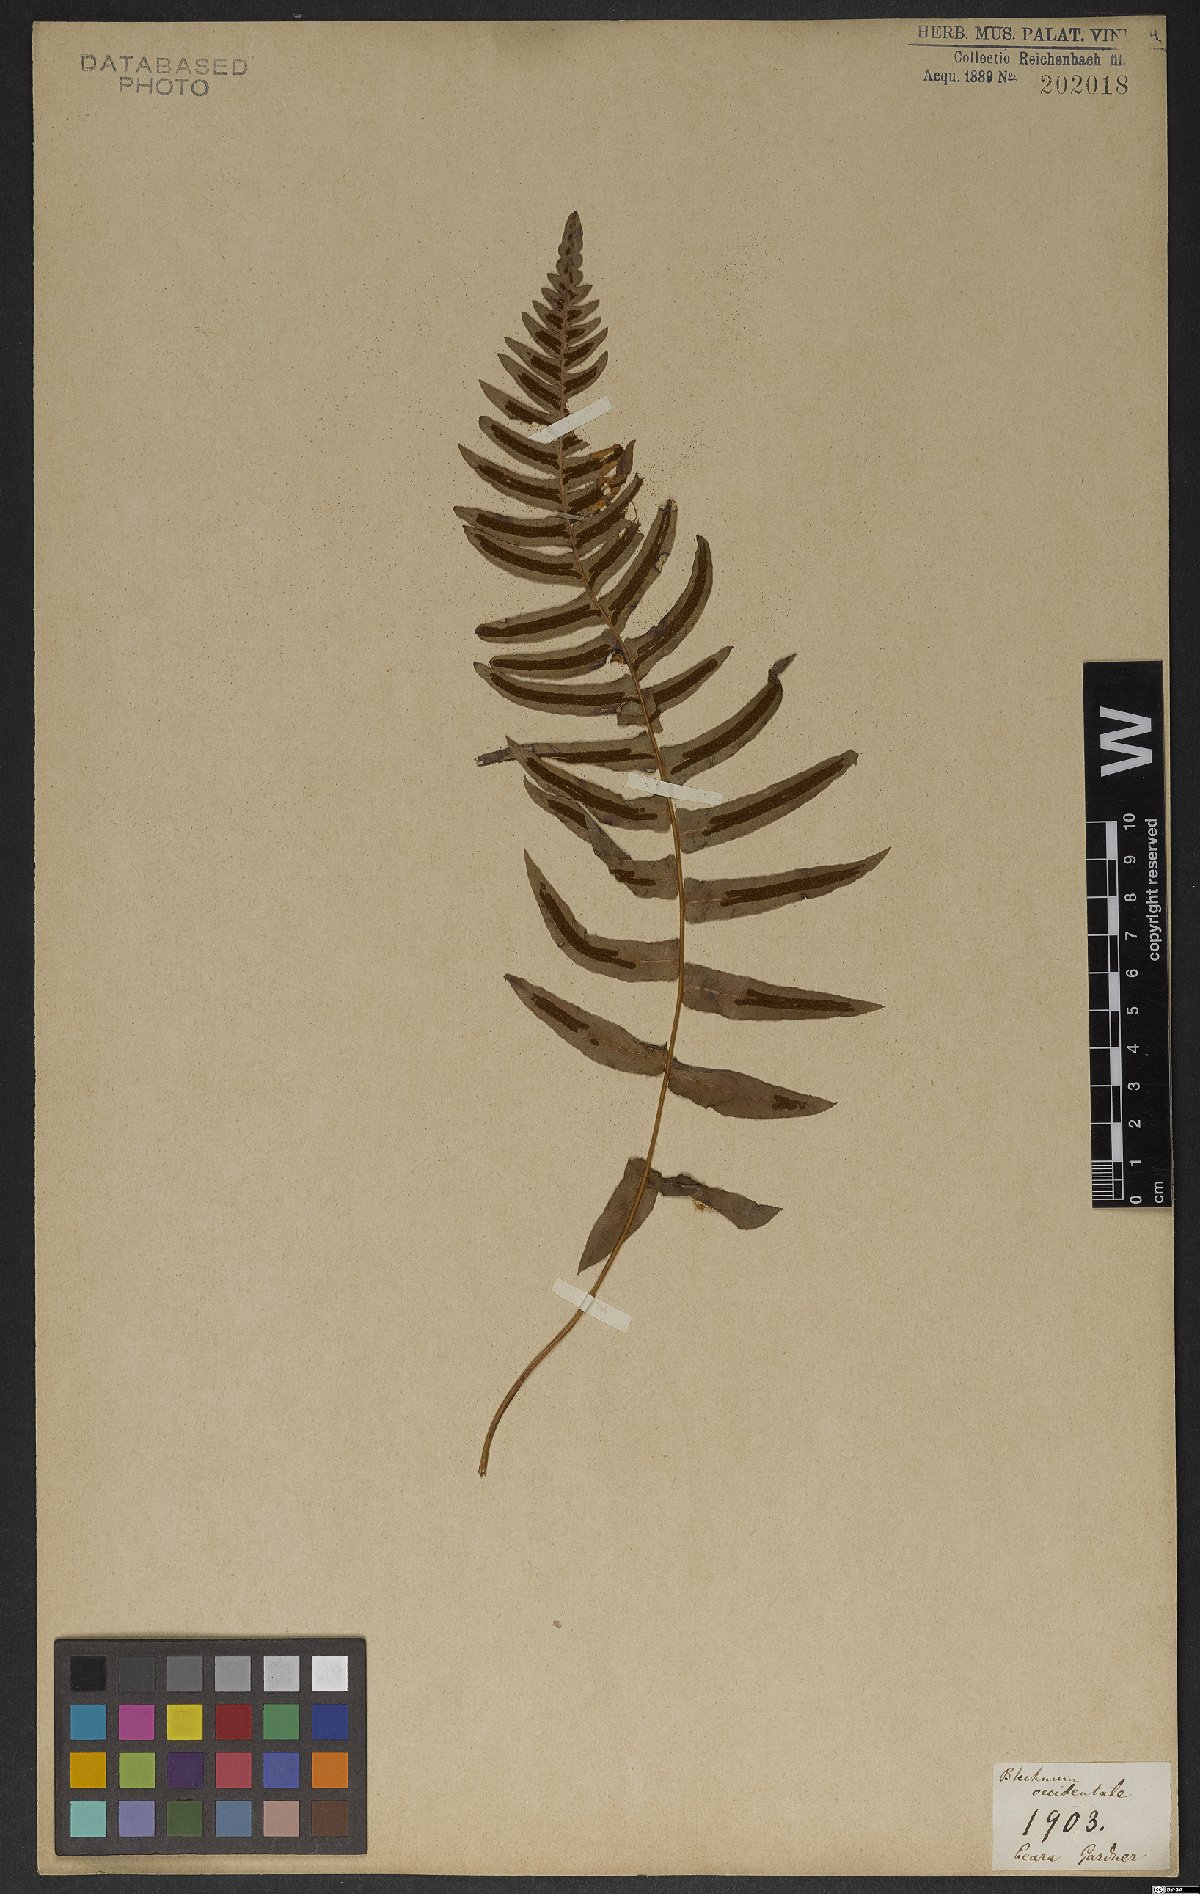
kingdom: Plantae
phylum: Tracheophyta
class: Polypodiopsida
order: Polypodiales
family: Blechnaceae
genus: Blechnum
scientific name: Blechnum occidentale
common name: Hammock fern
